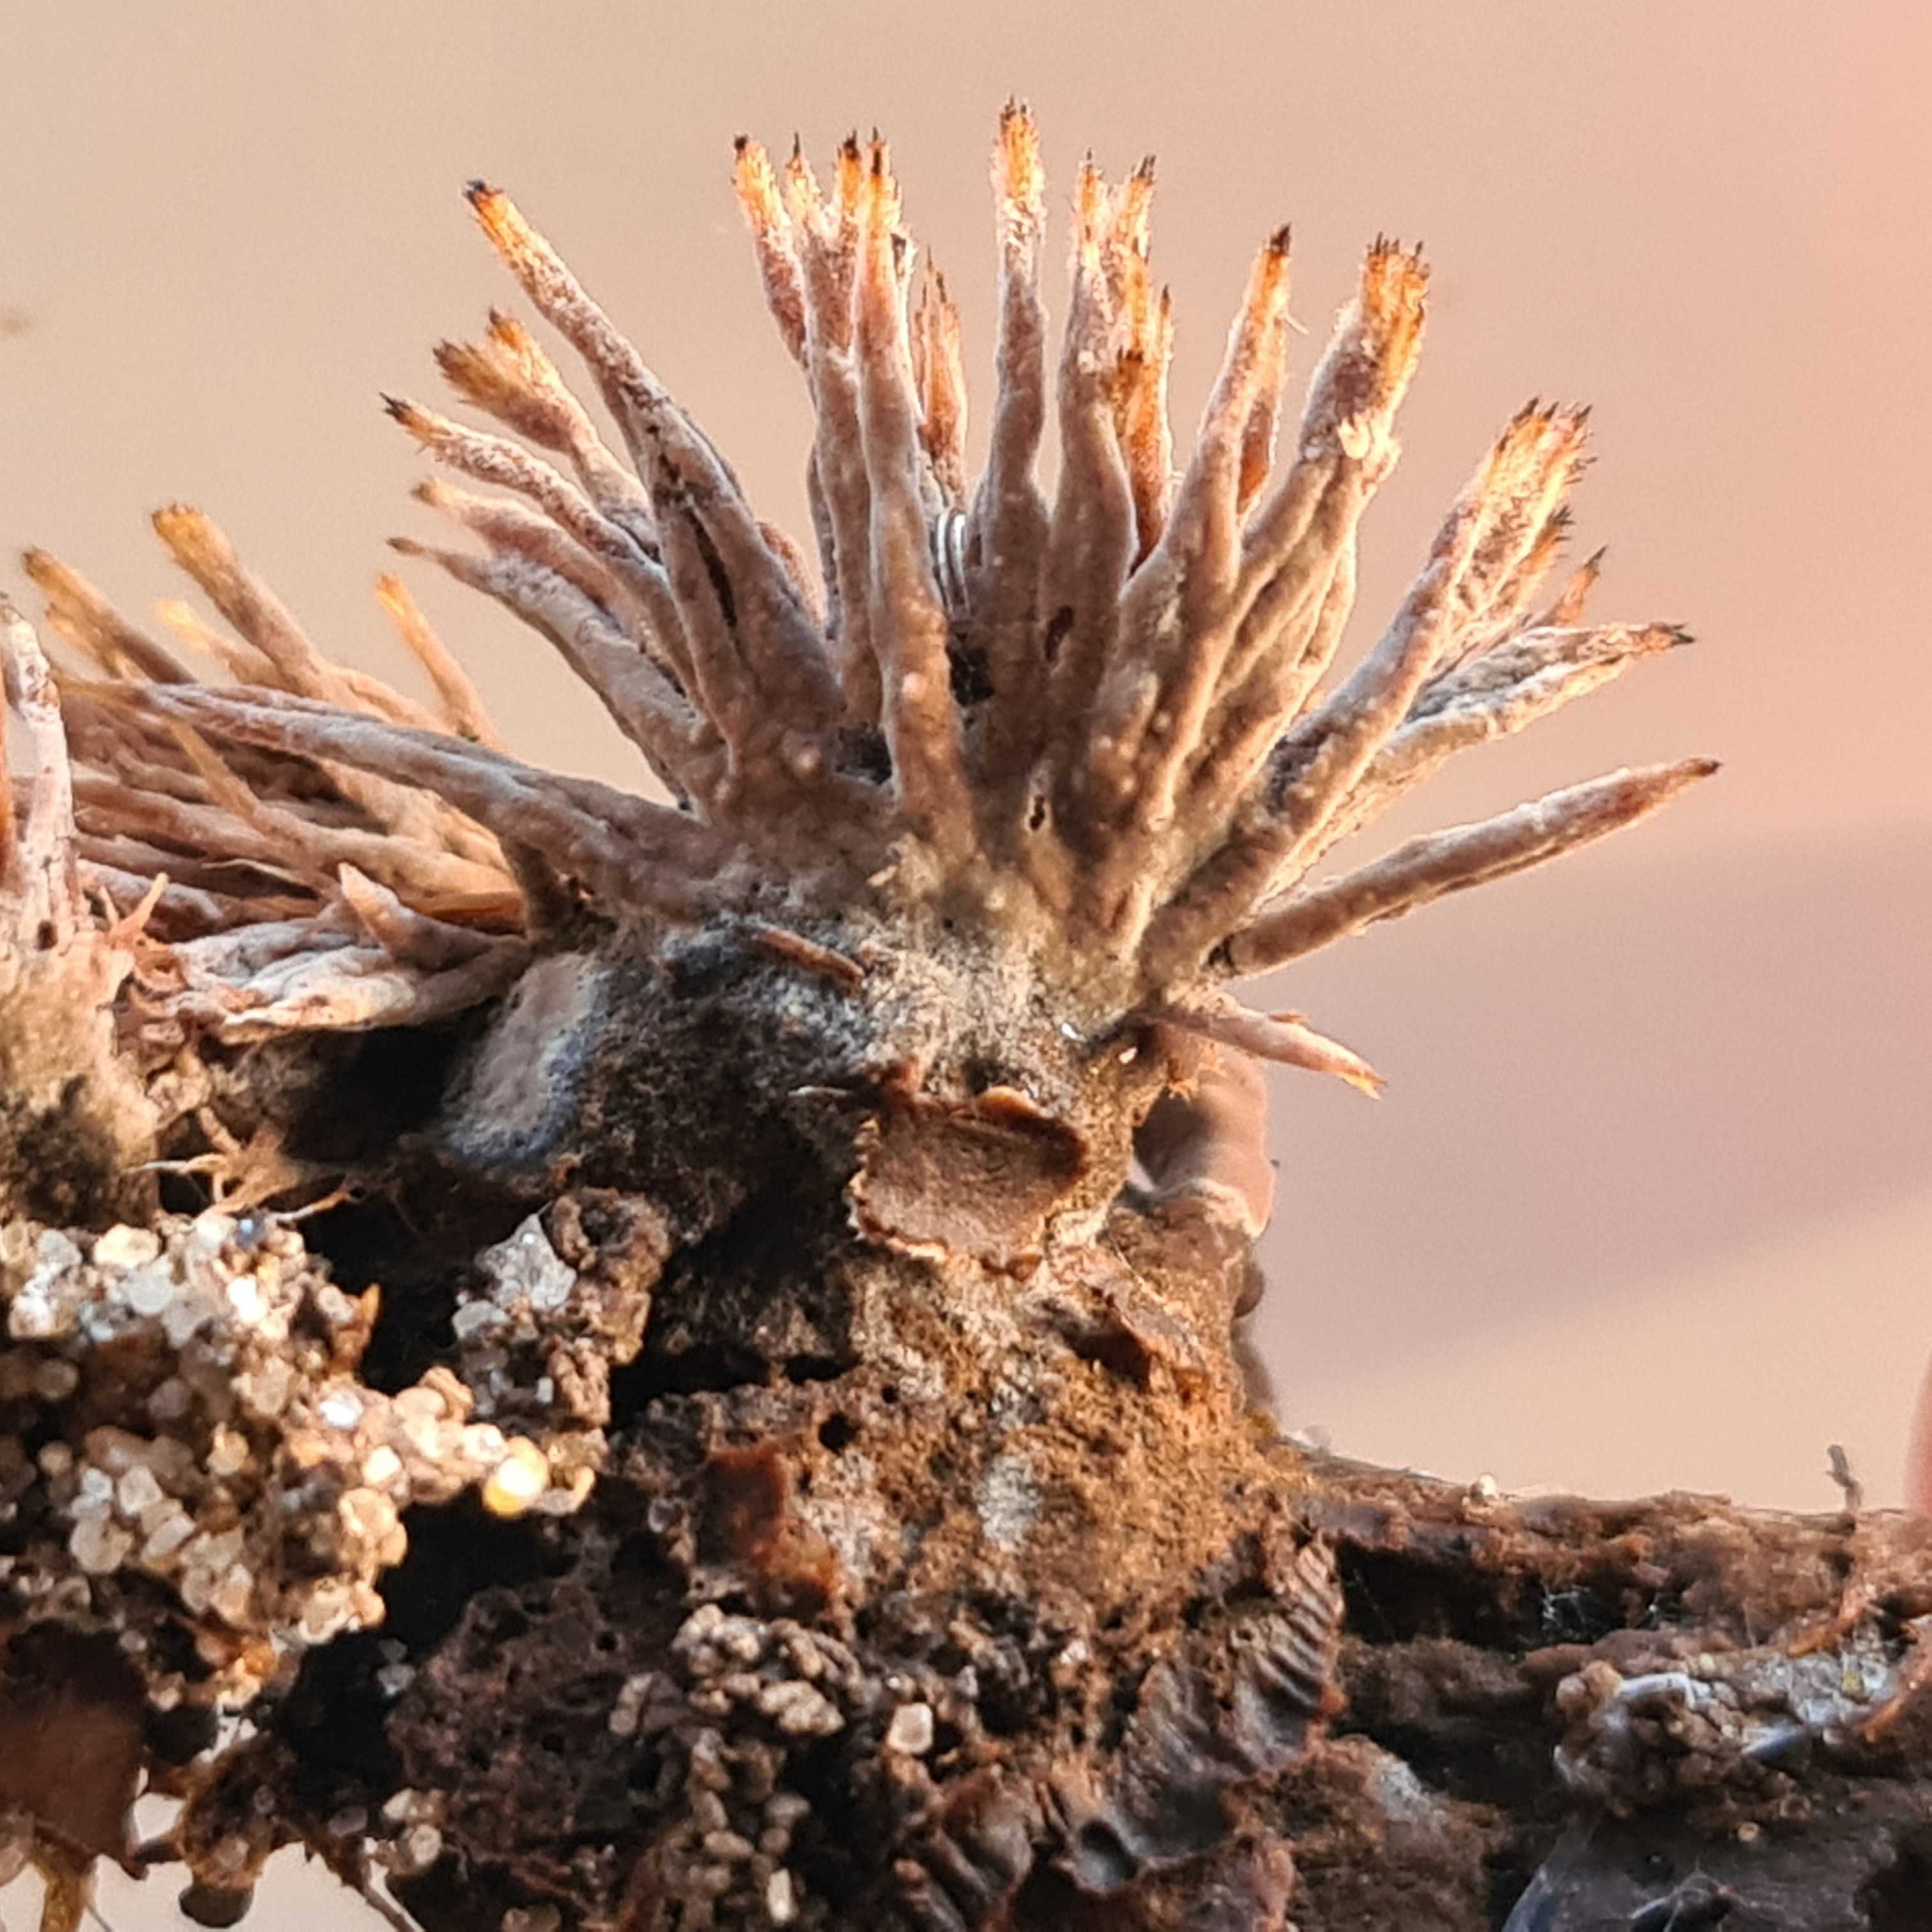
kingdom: Fungi
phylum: Basidiomycota
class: Agaricomycetes
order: Thelephorales
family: Thelephoraceae
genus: Thelephora
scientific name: Thelephora anthocephala
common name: busk-frynsesvamp
